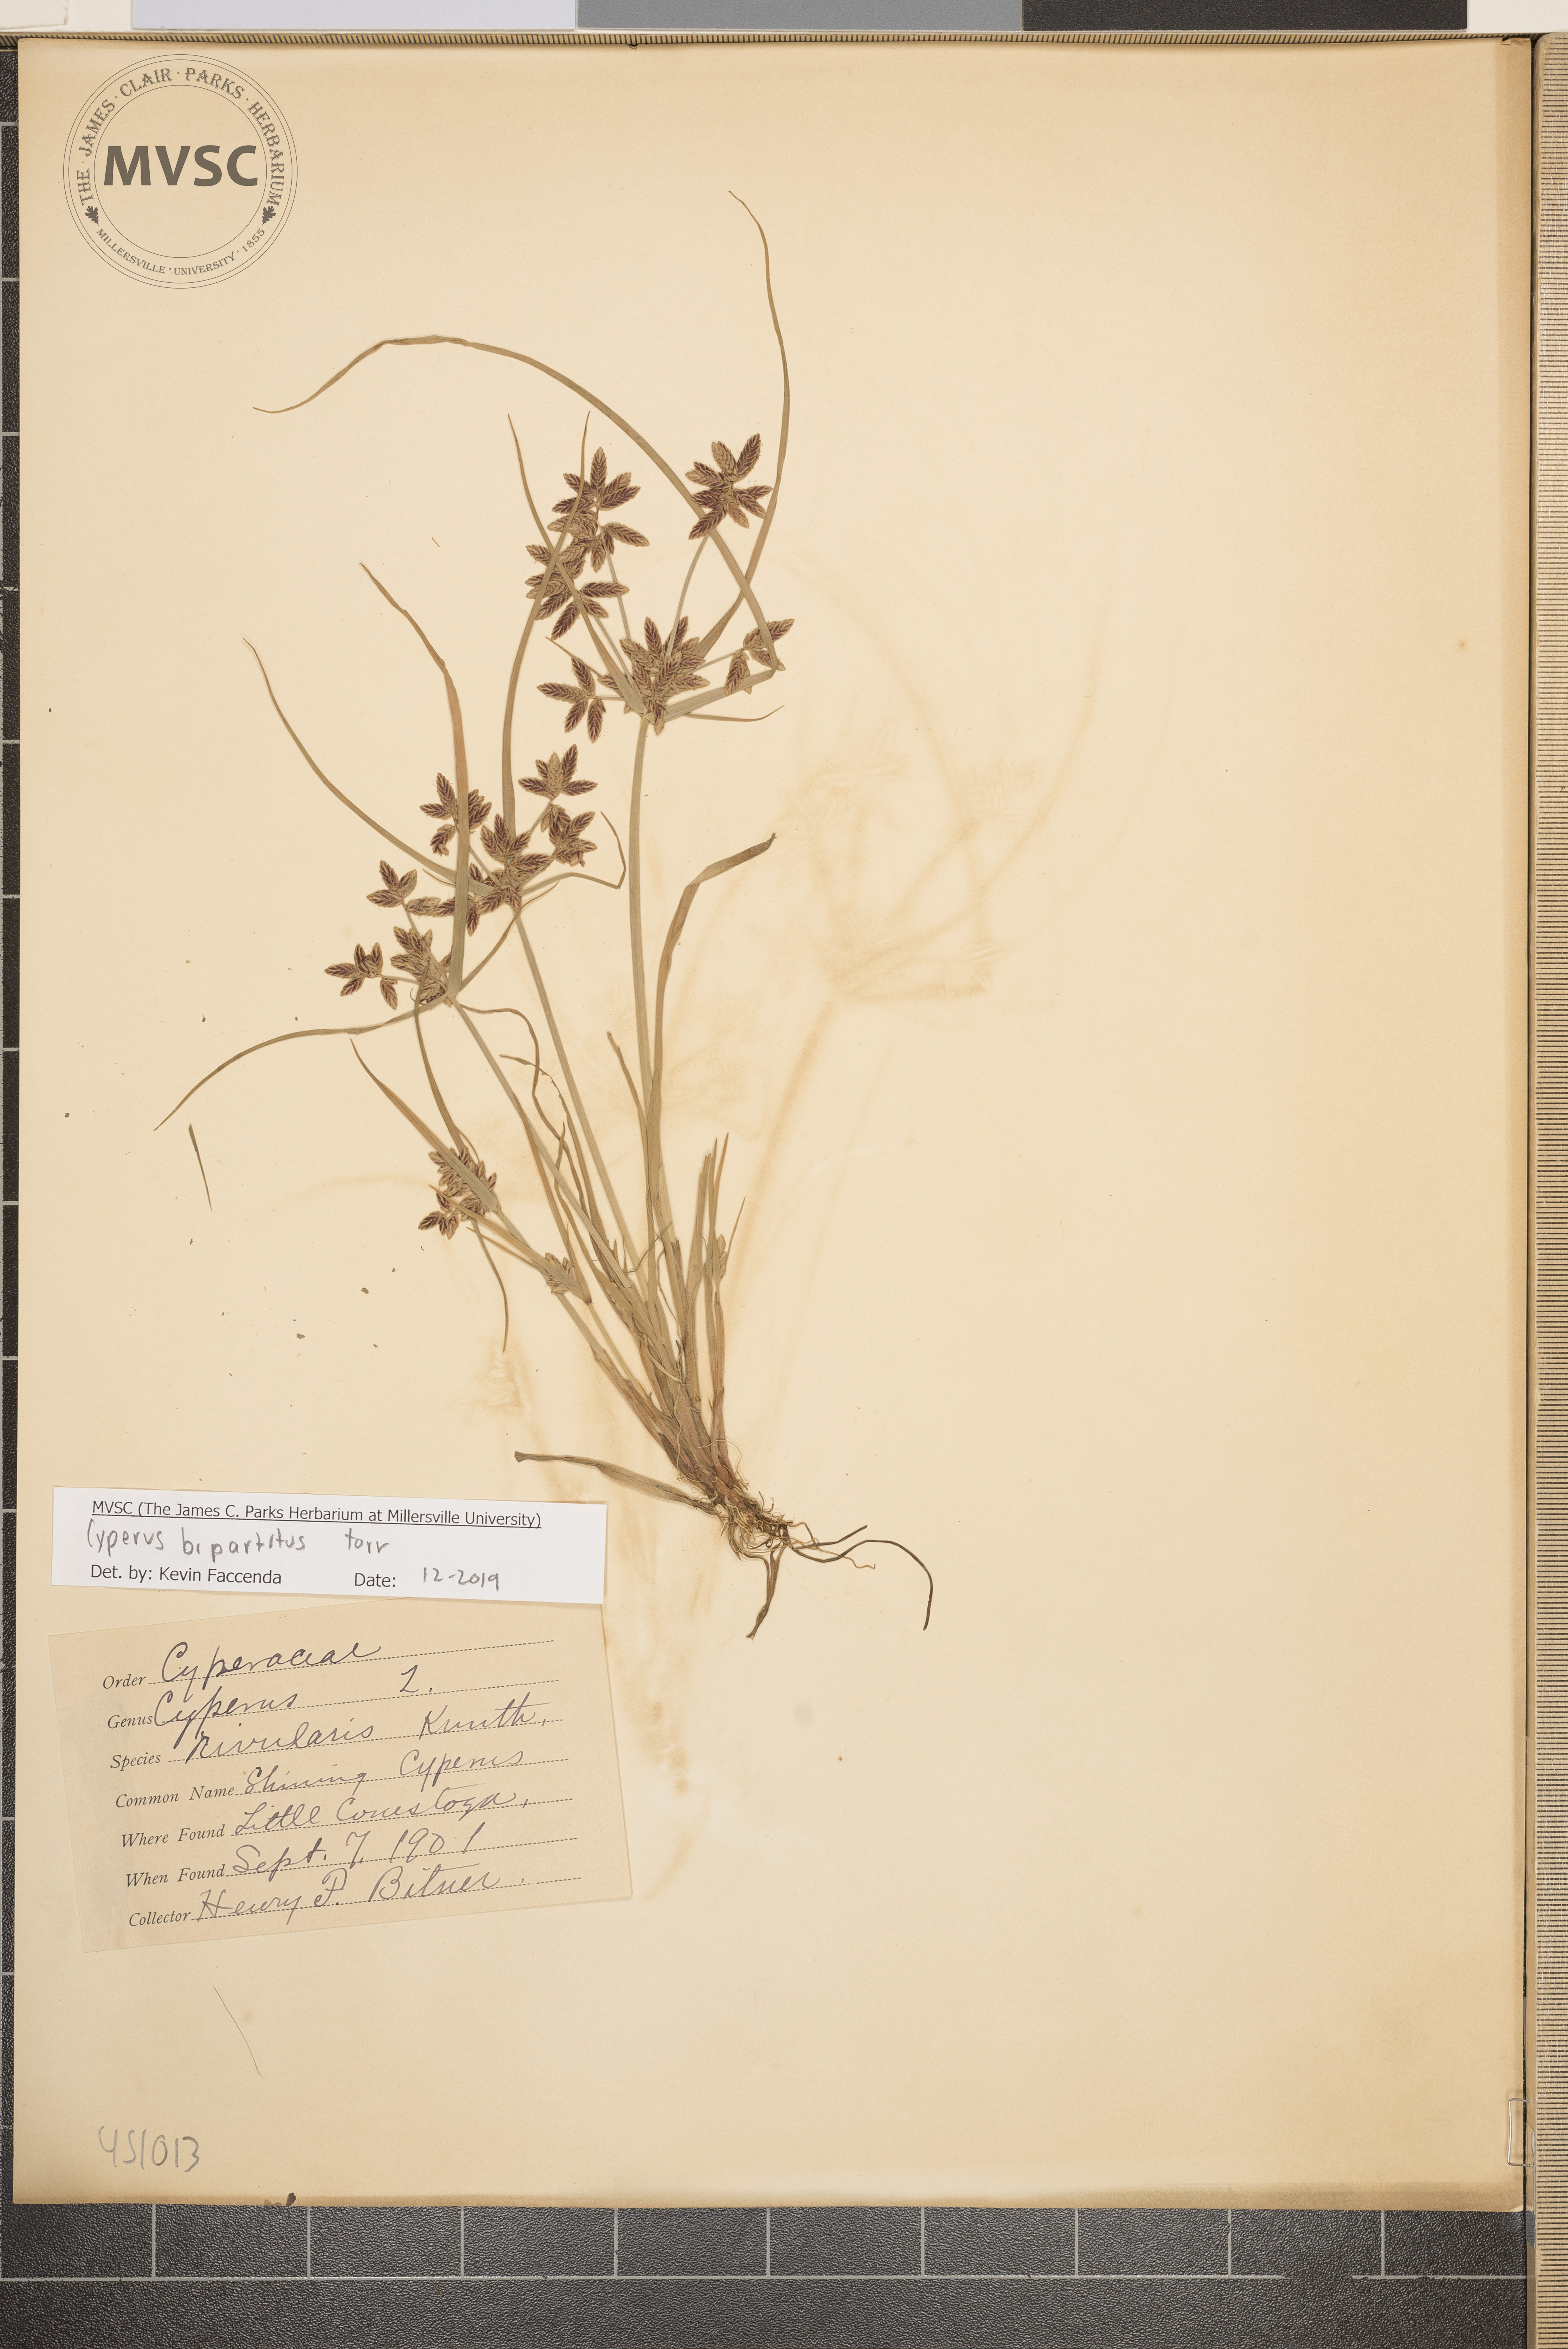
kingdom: Plantae
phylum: Tracheophyta
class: Liliopsida
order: Poales
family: Cyperaceae
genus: Cyperus
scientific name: Cyperus bipartitus
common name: Brook flatsedge
